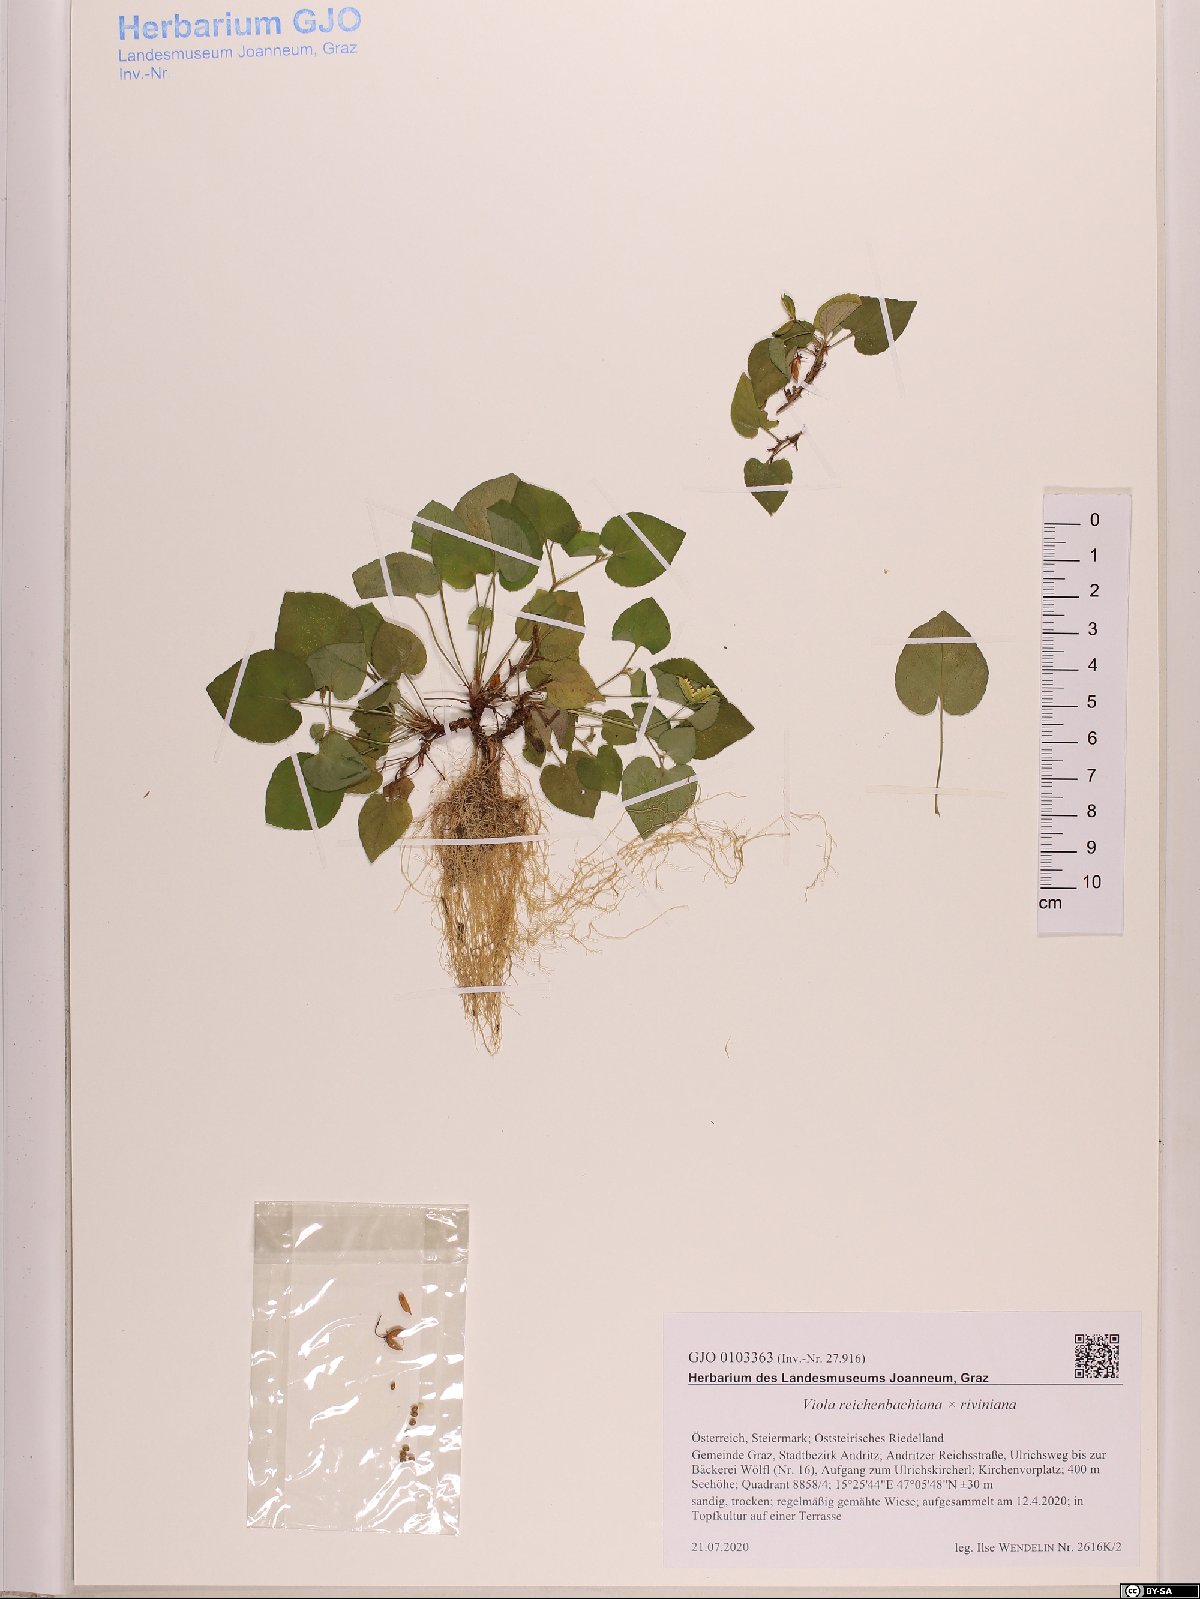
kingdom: Plantae
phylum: Tracheophyta
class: Magnoliopsida
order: Malpighiales
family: Violaceae
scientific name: Violaceae
